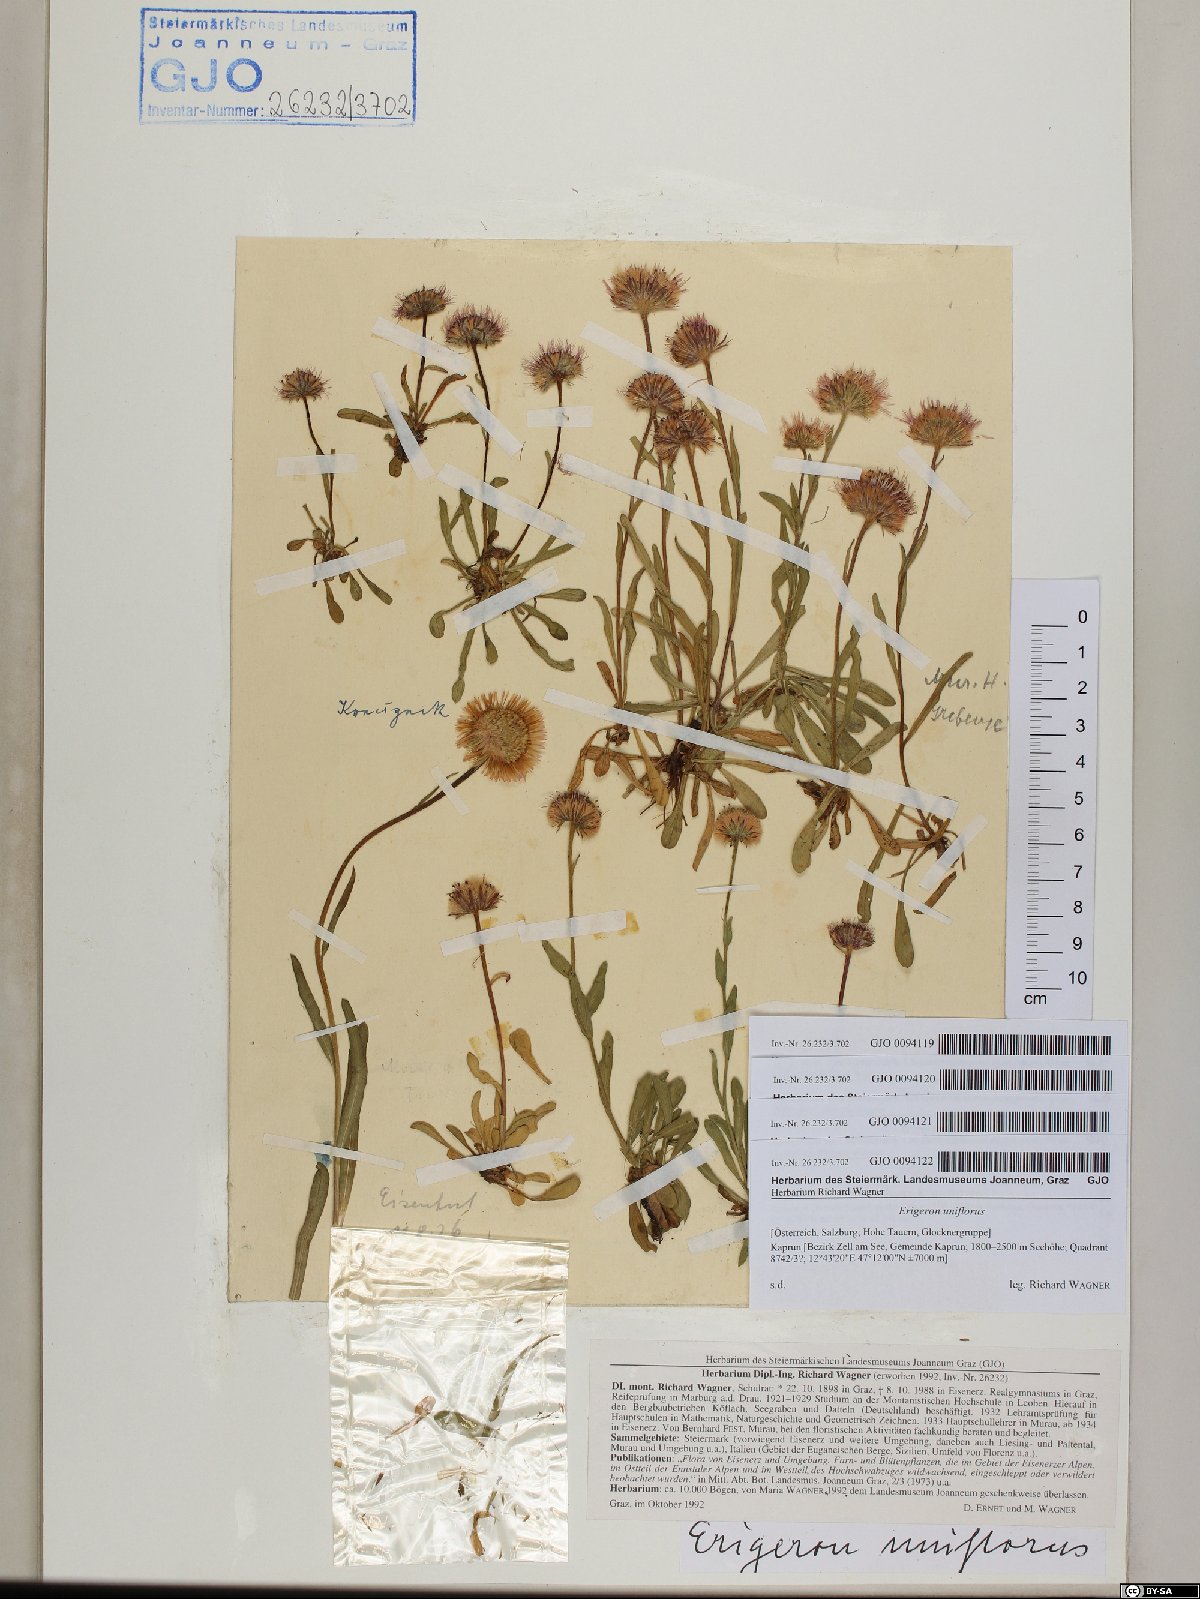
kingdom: Plantae
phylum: Tracheophyta
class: Magnoliopsida
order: Asterales
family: Asteraceae
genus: Erigeron
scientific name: Erigeron uniflorus
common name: Northern daisy
